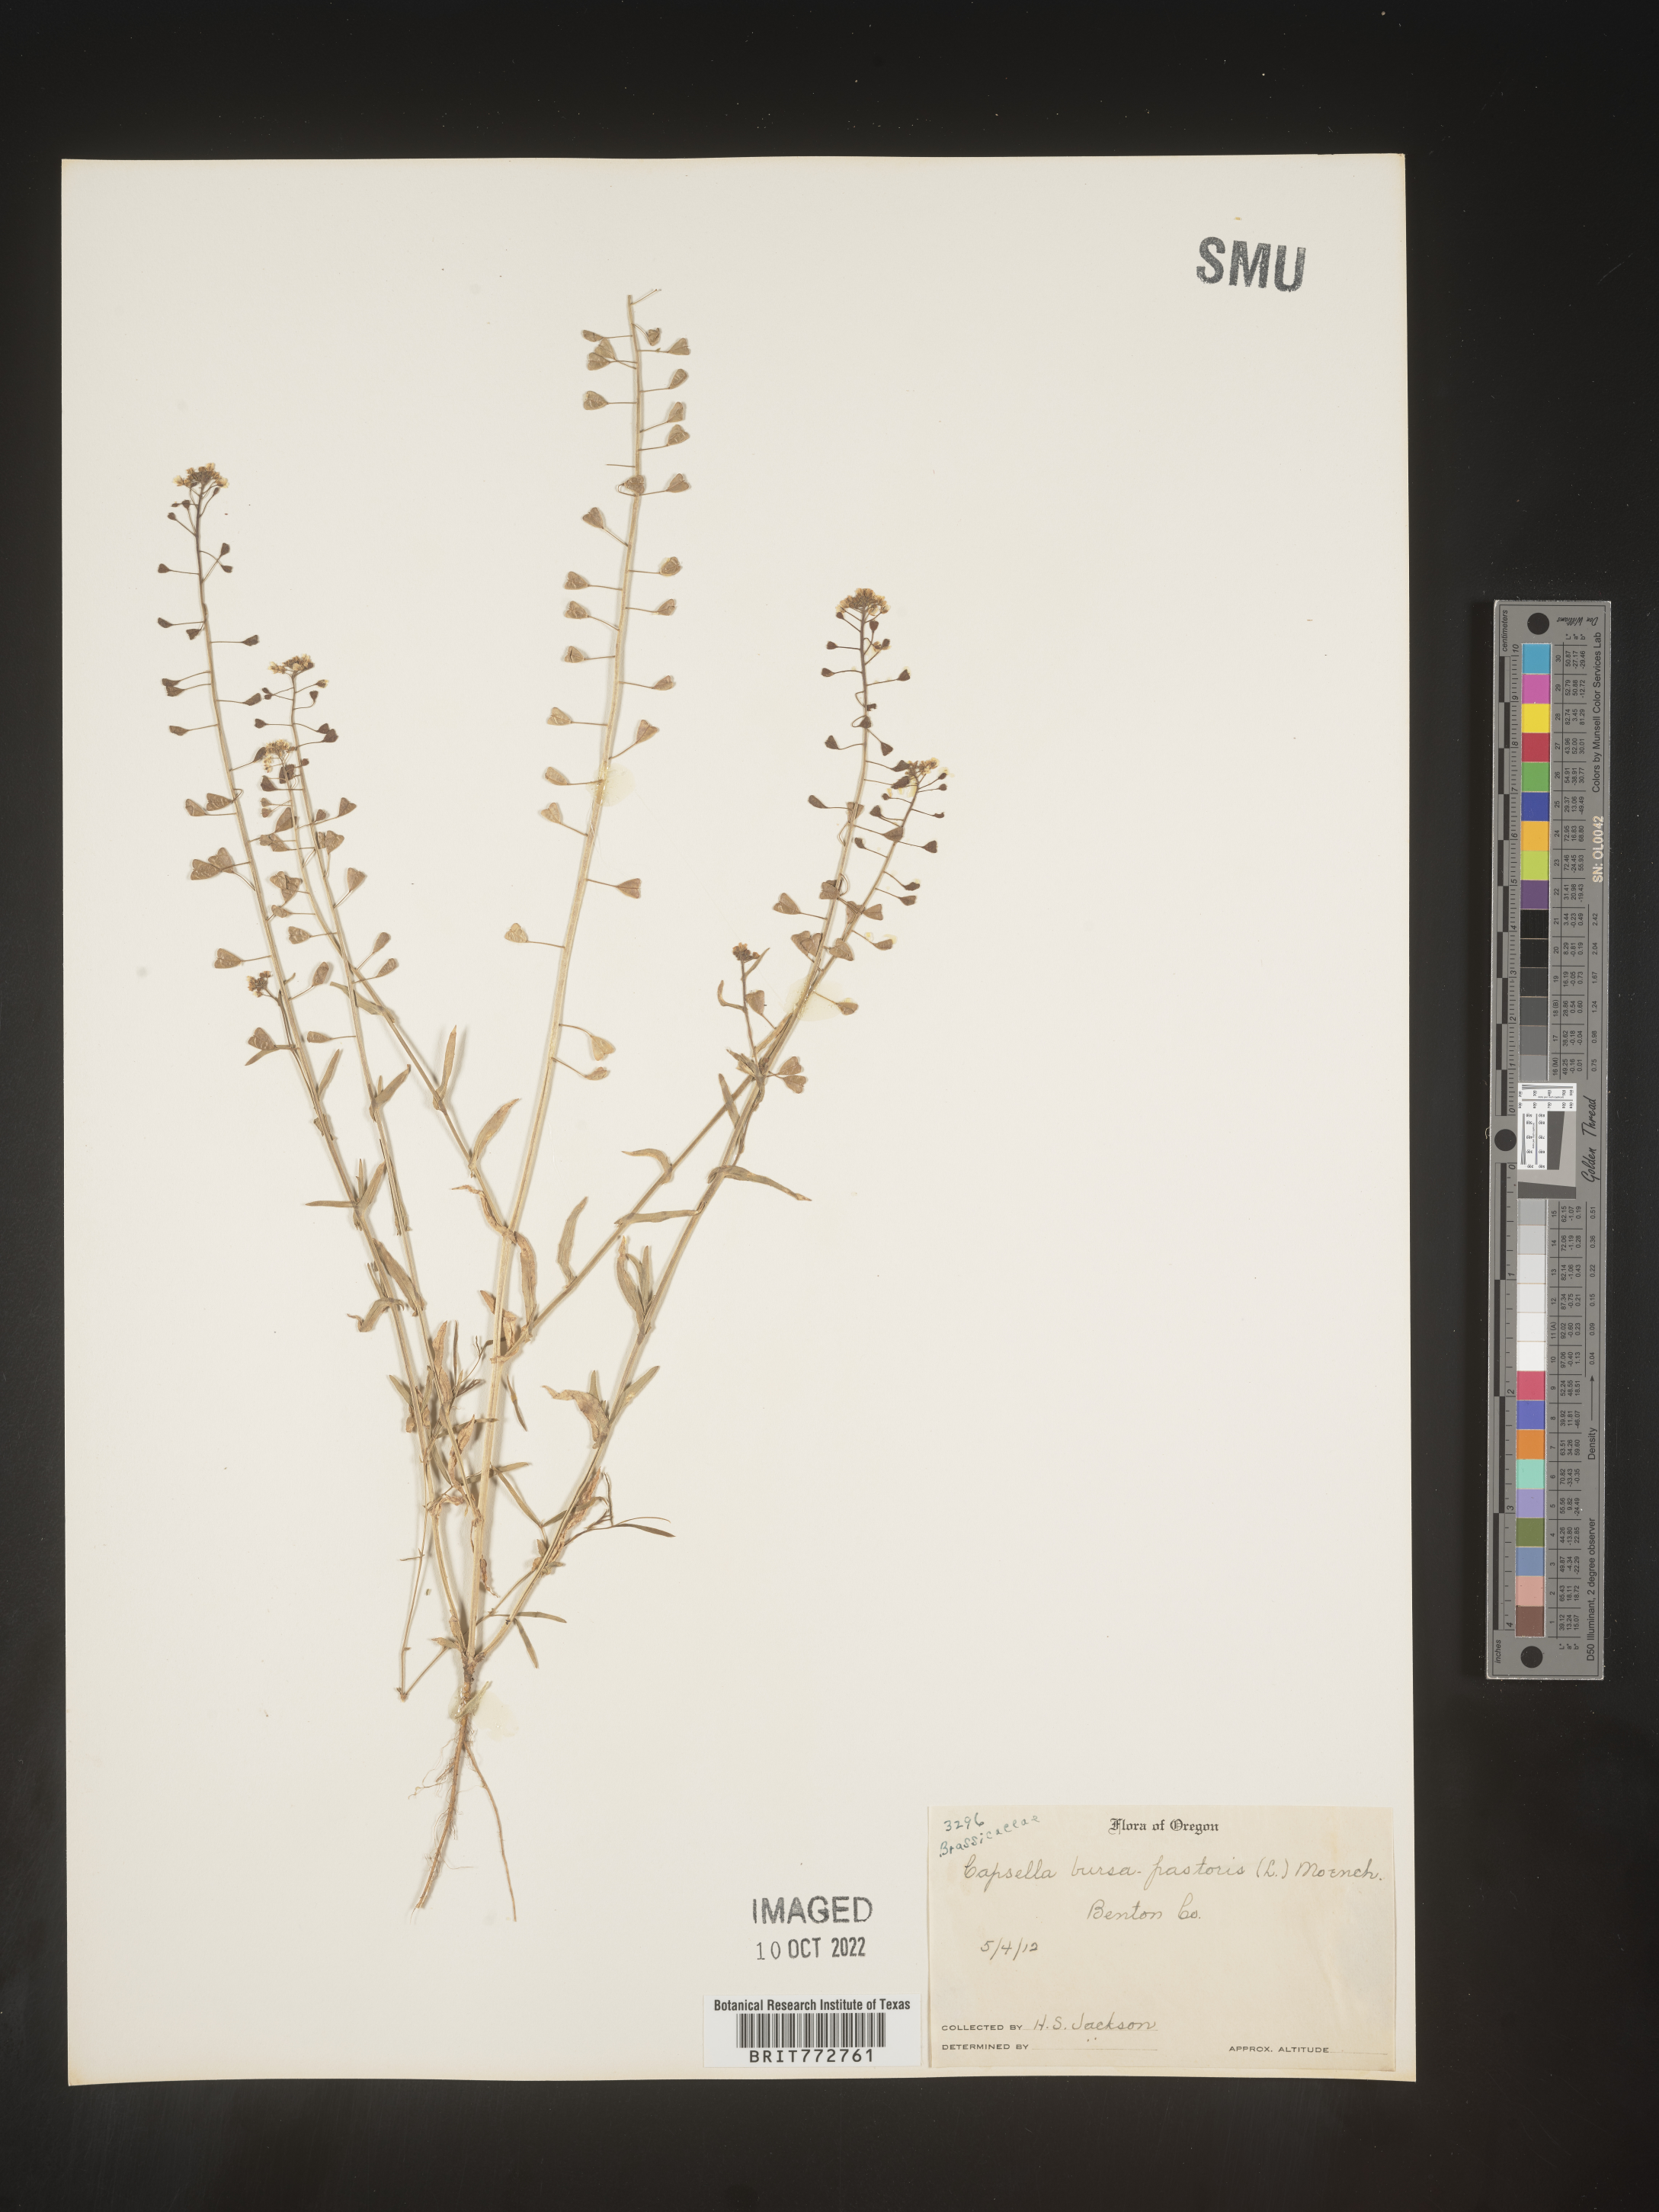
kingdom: Plantae
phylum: Tracheophyta
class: Magnoliopsida
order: Brassicales
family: Brassicaceae
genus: Capsella
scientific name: Capsella bursa-pastoris
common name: Shepherd's purse
